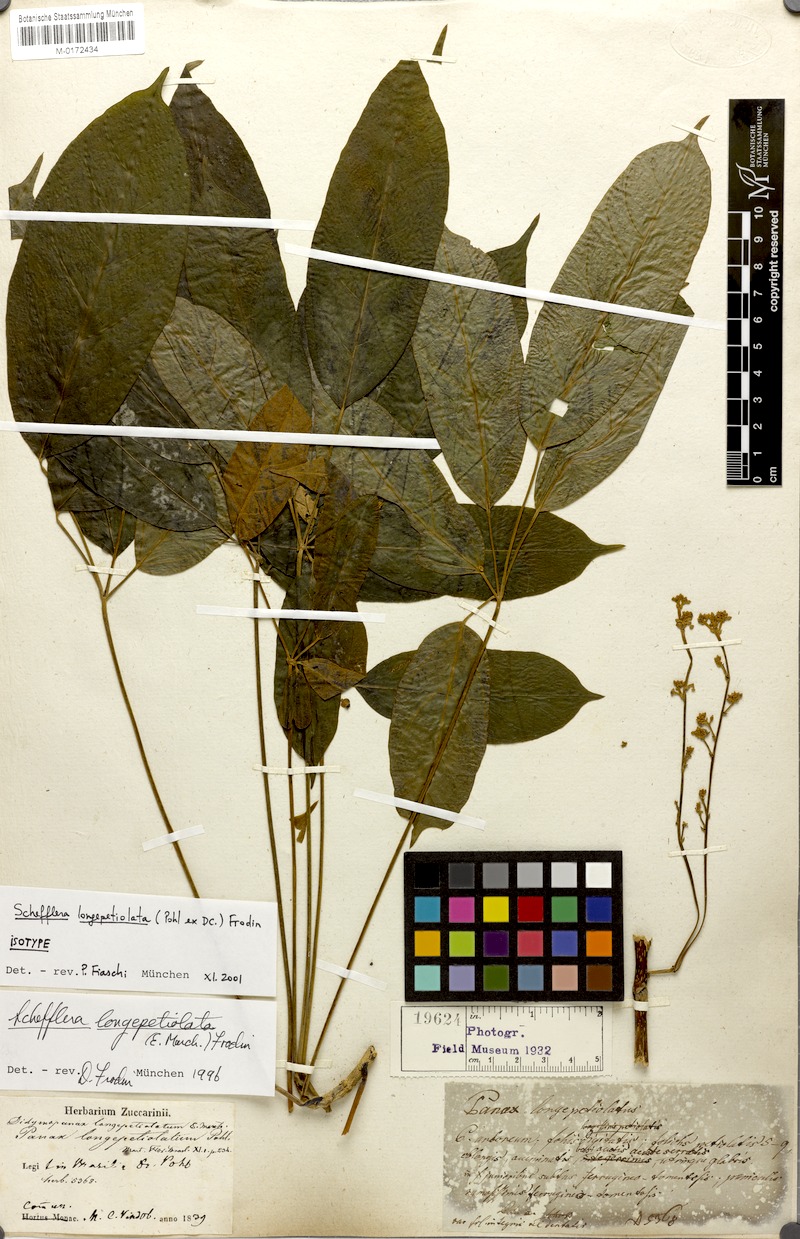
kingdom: Plantae
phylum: Tracheophyta
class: Magnoliopsida
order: Apiales
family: Araliaceae
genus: Didymopanax
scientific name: Didymopanax longepetiolatus
